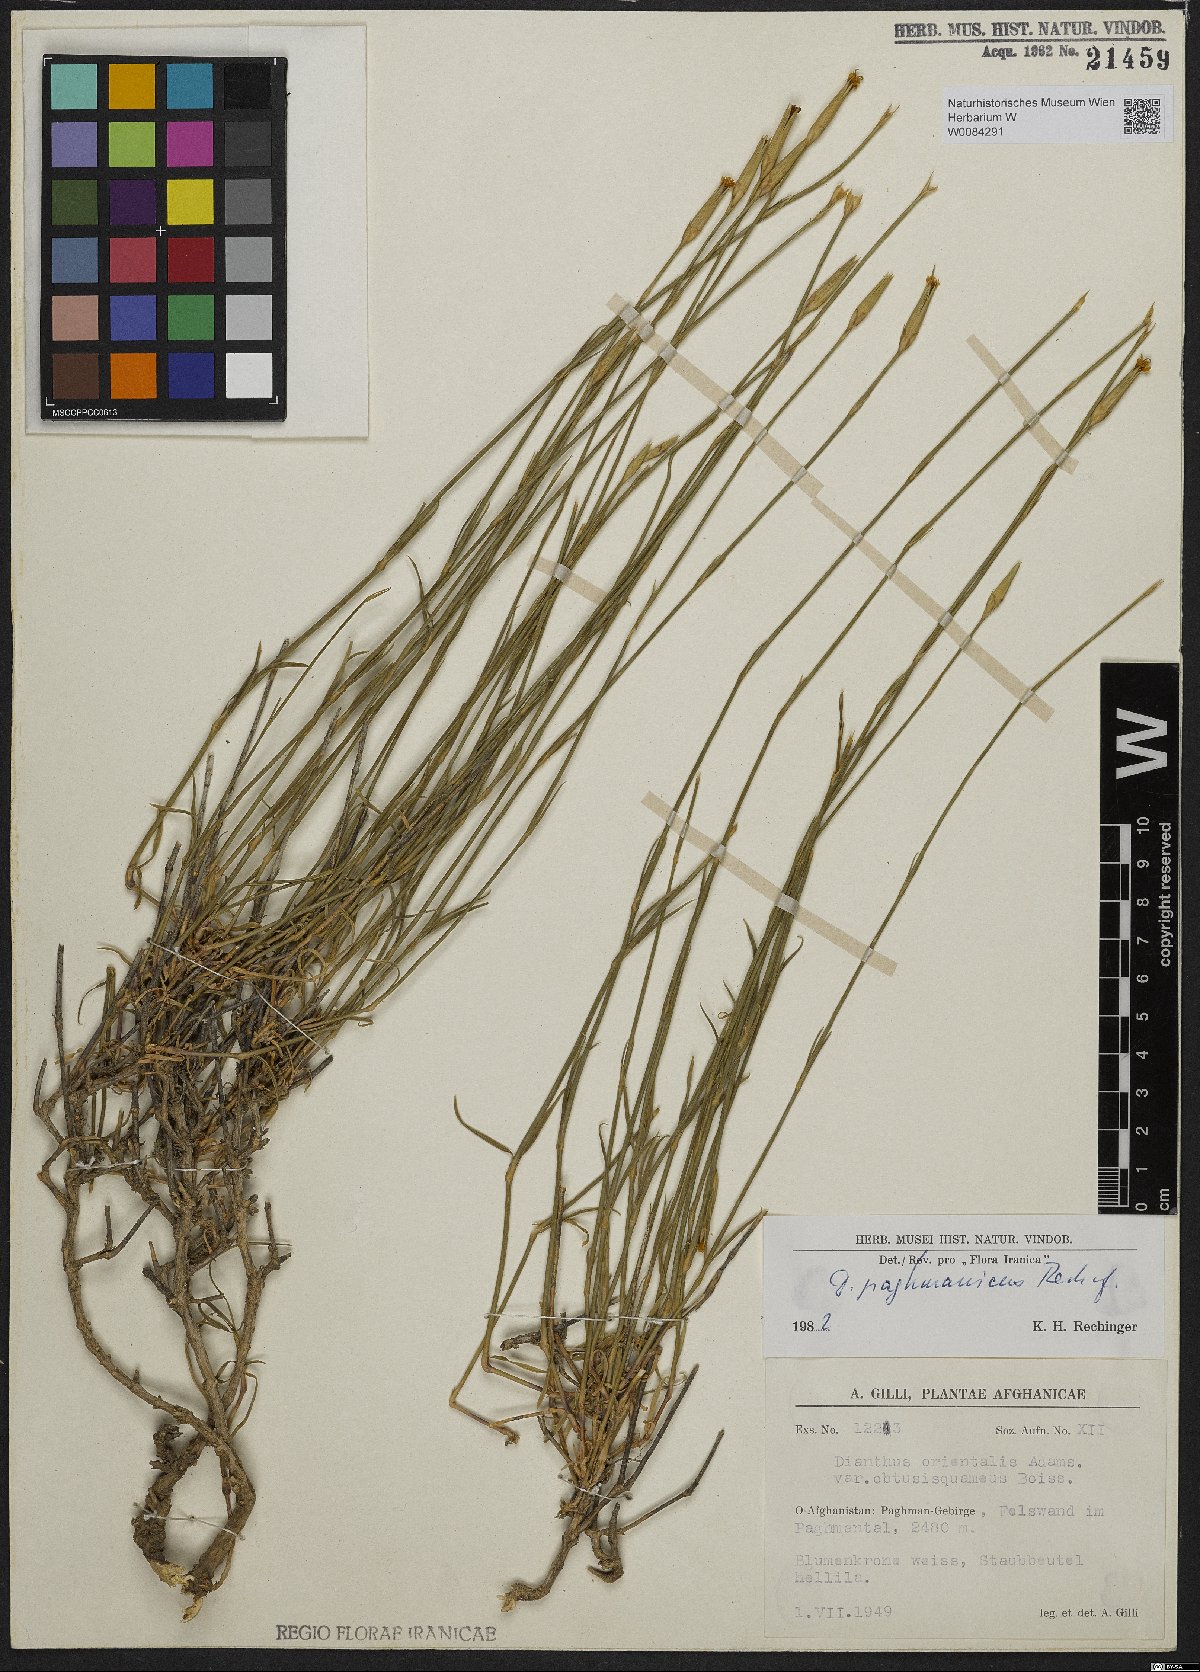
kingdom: Plantae
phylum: Tracheophyta
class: Magnoliopsida
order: Caryophyllales
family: Caryophyllaceae
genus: Dianthus
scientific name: Dianthus paghmanicus
